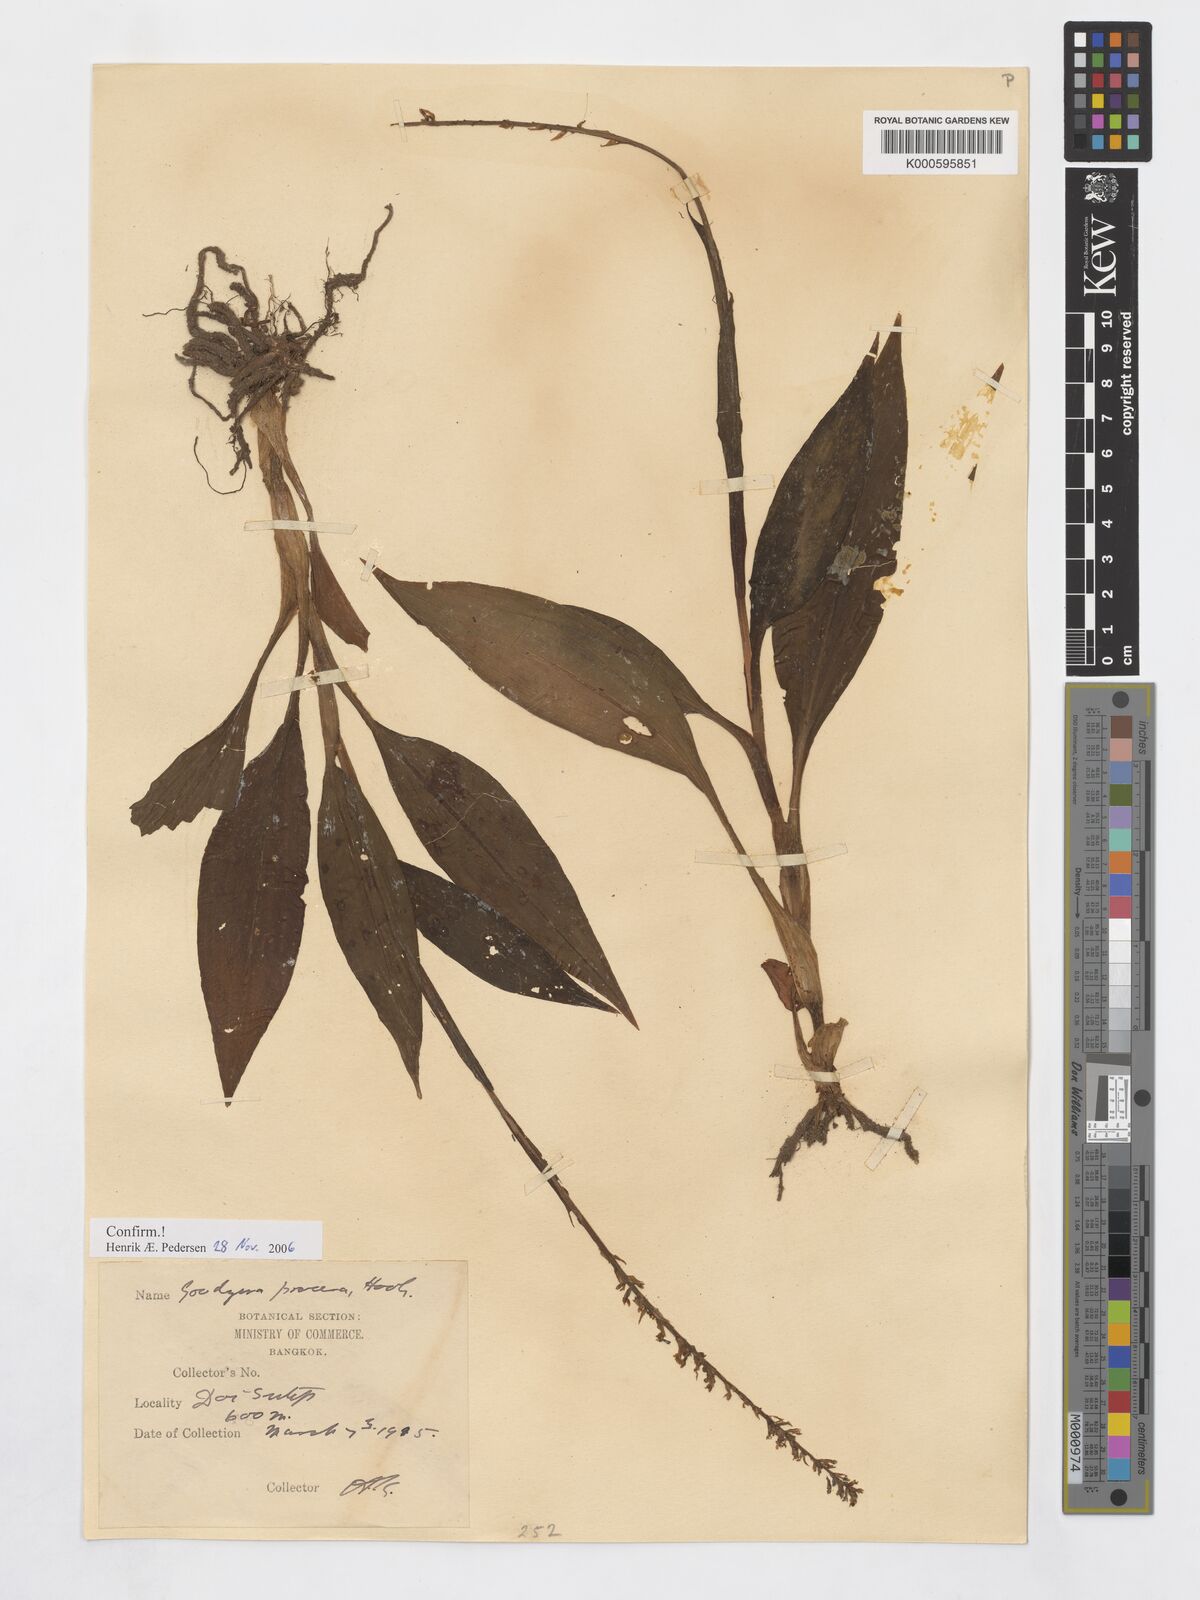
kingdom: Plantae
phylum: Tracheophyta
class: Liliopsida
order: Asparagales
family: Orchidaceae
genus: Goodyera
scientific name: Goodyera procera
